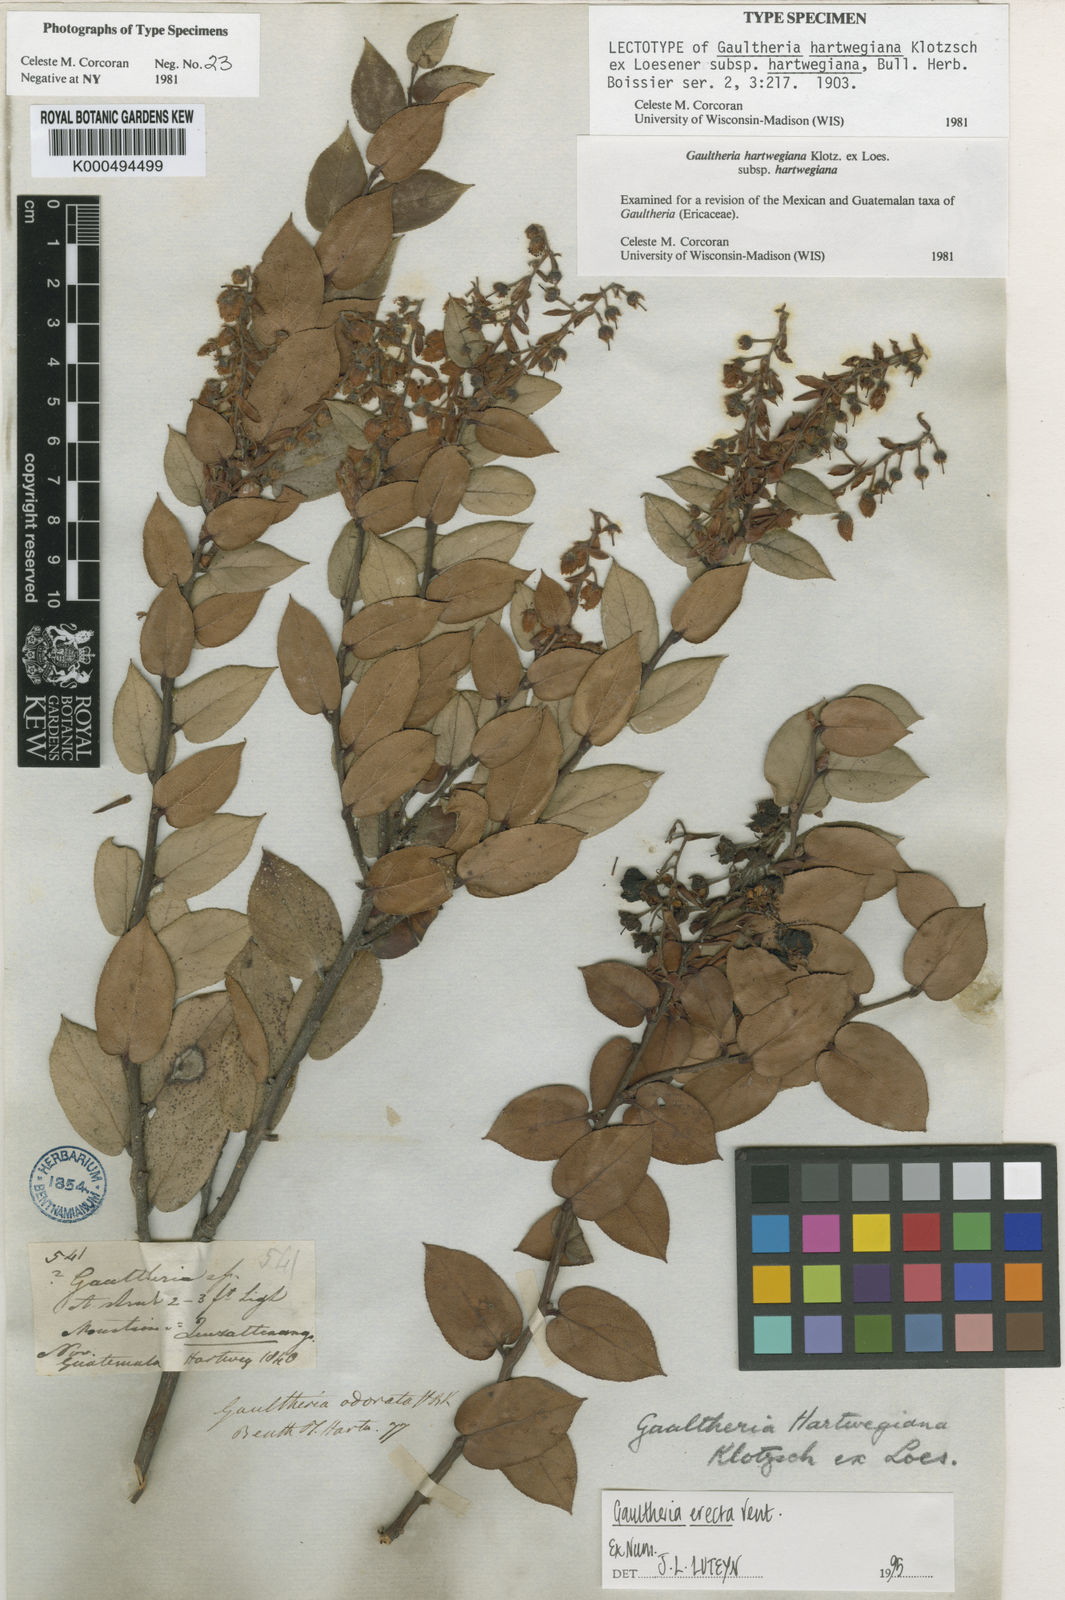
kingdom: Plantae
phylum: Tracheophyta
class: Magnoliopsida
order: Ericales
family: Ericaceae
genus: Gaultheria
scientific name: Gaultheria erecta
